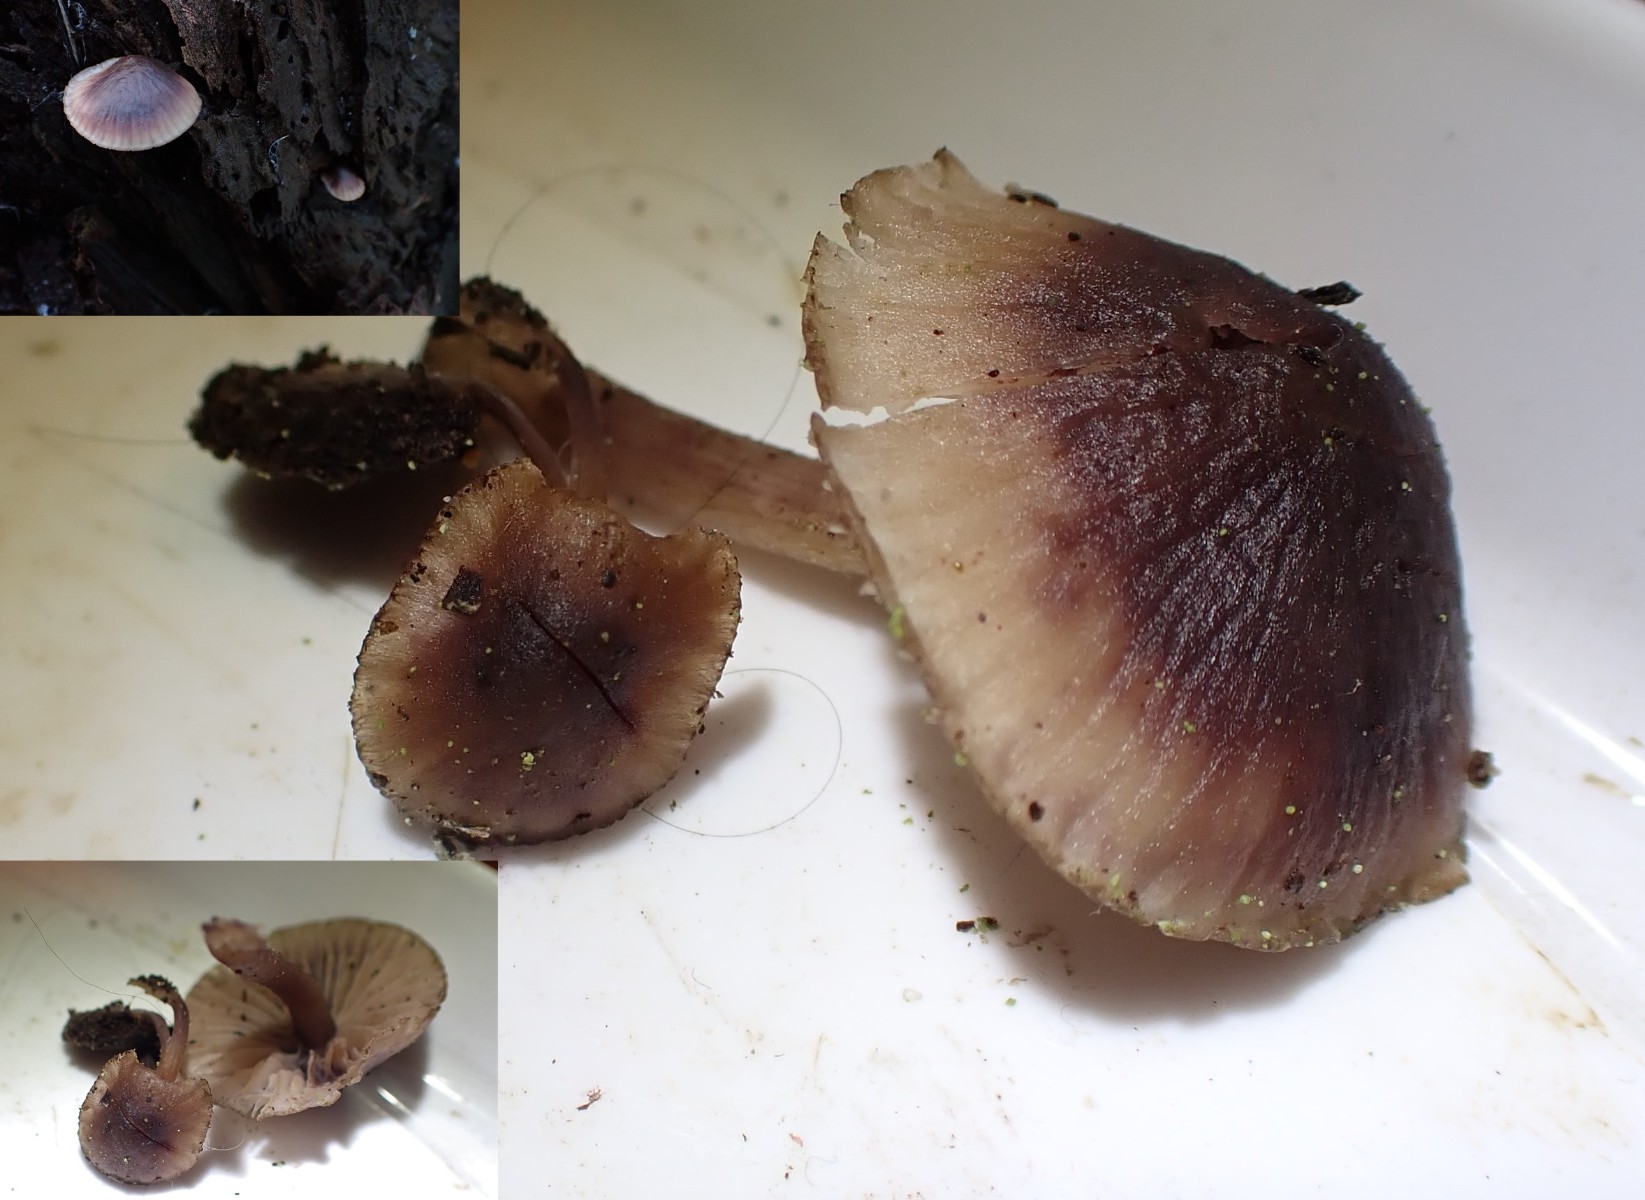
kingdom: Fungi
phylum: Basidiomycota
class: Agaricomycetes
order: Agaricales
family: Mycenaceae
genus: Mycena
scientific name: Mycena haematopus
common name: blødende huesvamp
